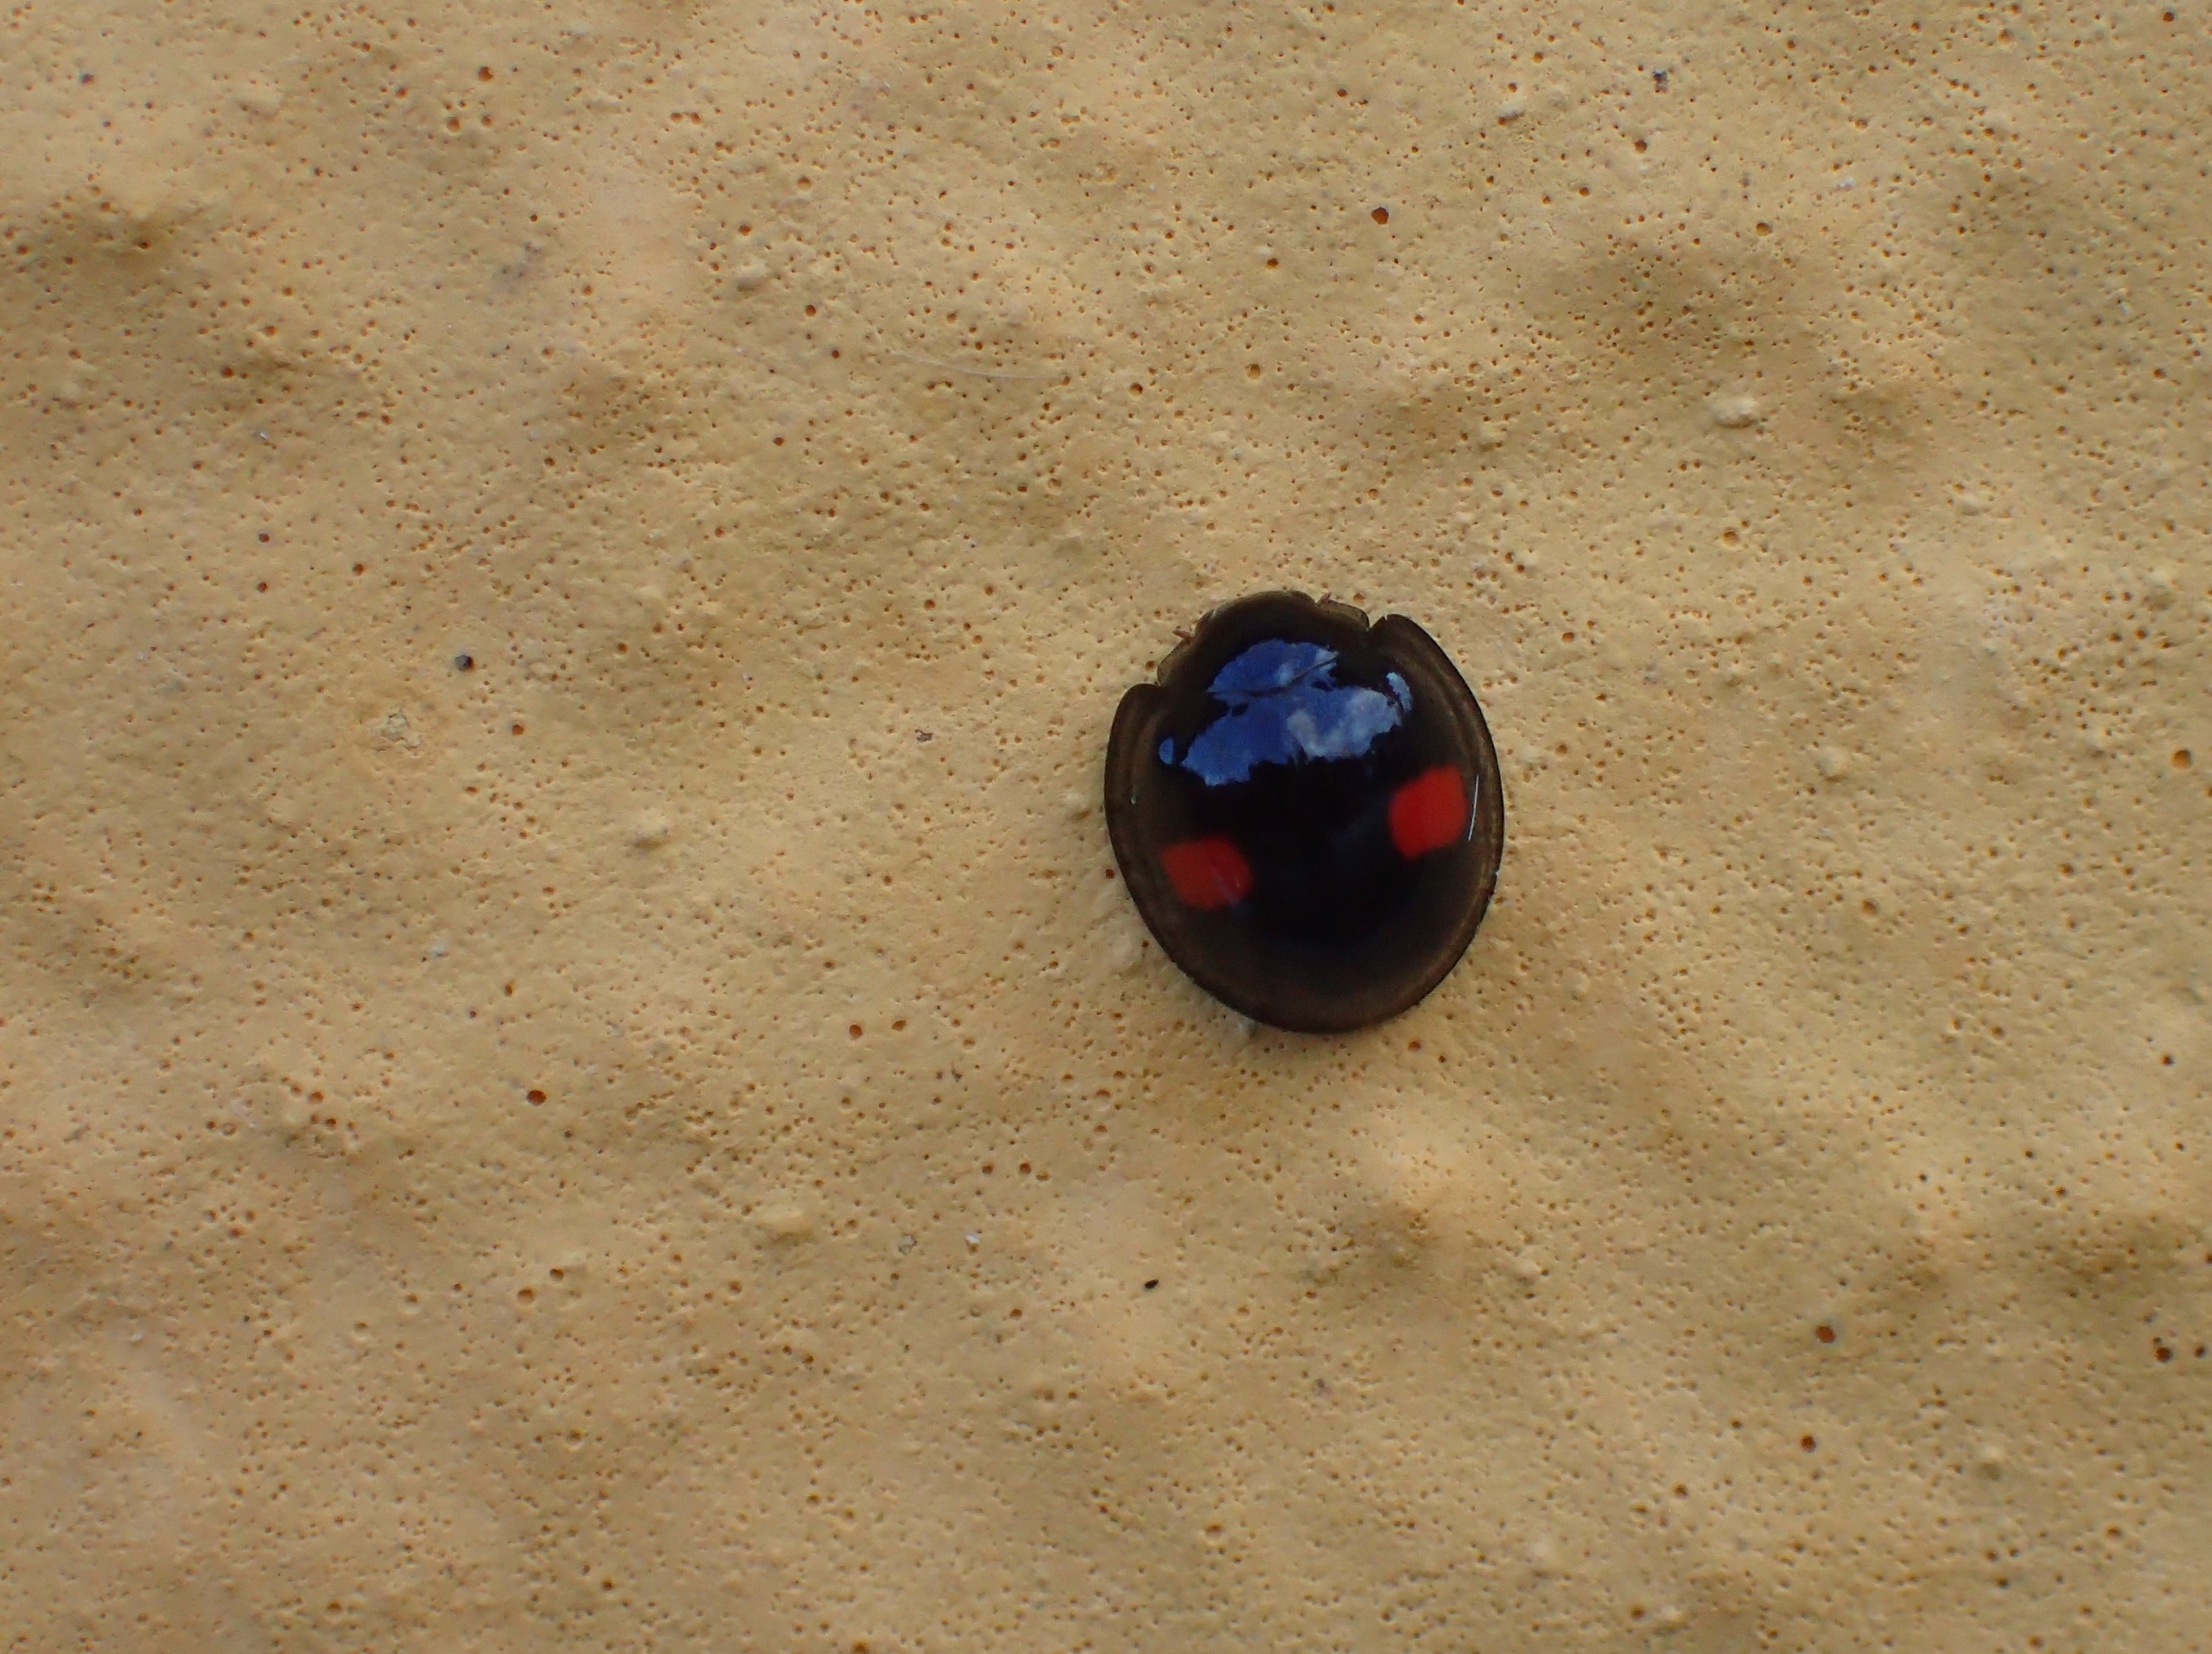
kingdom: Animalia
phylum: Arthropoda
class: Insecta
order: Coleoptera
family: Coccinellidae
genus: Chilocorus
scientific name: Chilocorus renipustulatus
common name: Askemariehøne
